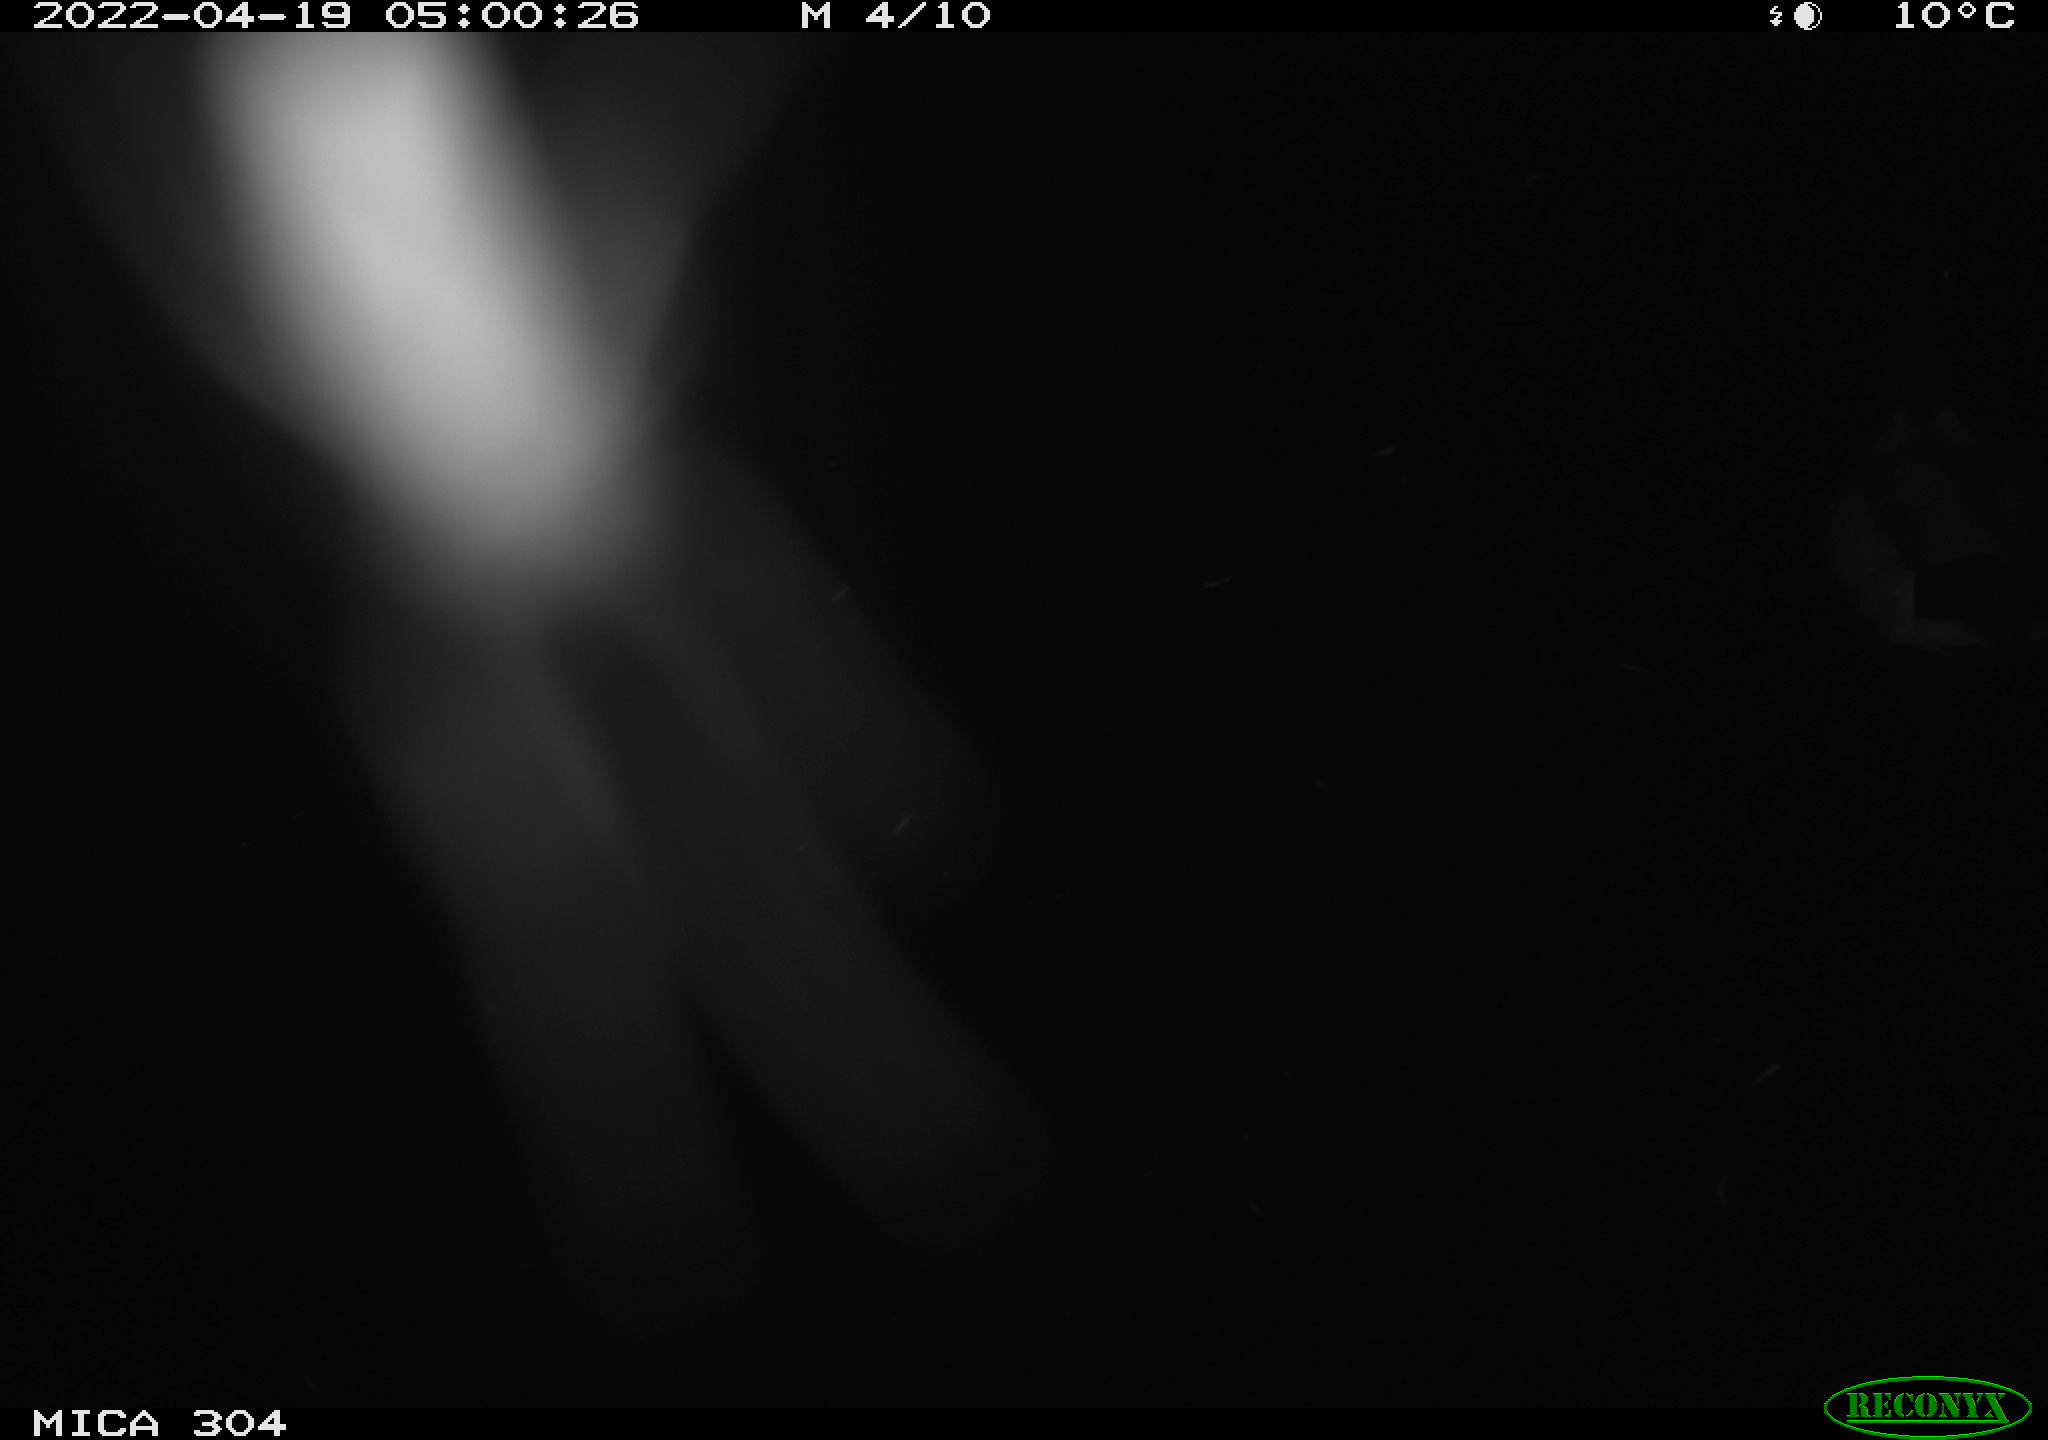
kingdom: Animalia
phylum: Chordata
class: Aves
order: Anseriformes
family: Anatidae
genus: Anas
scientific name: Anas platyrhynchos
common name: Mallard
